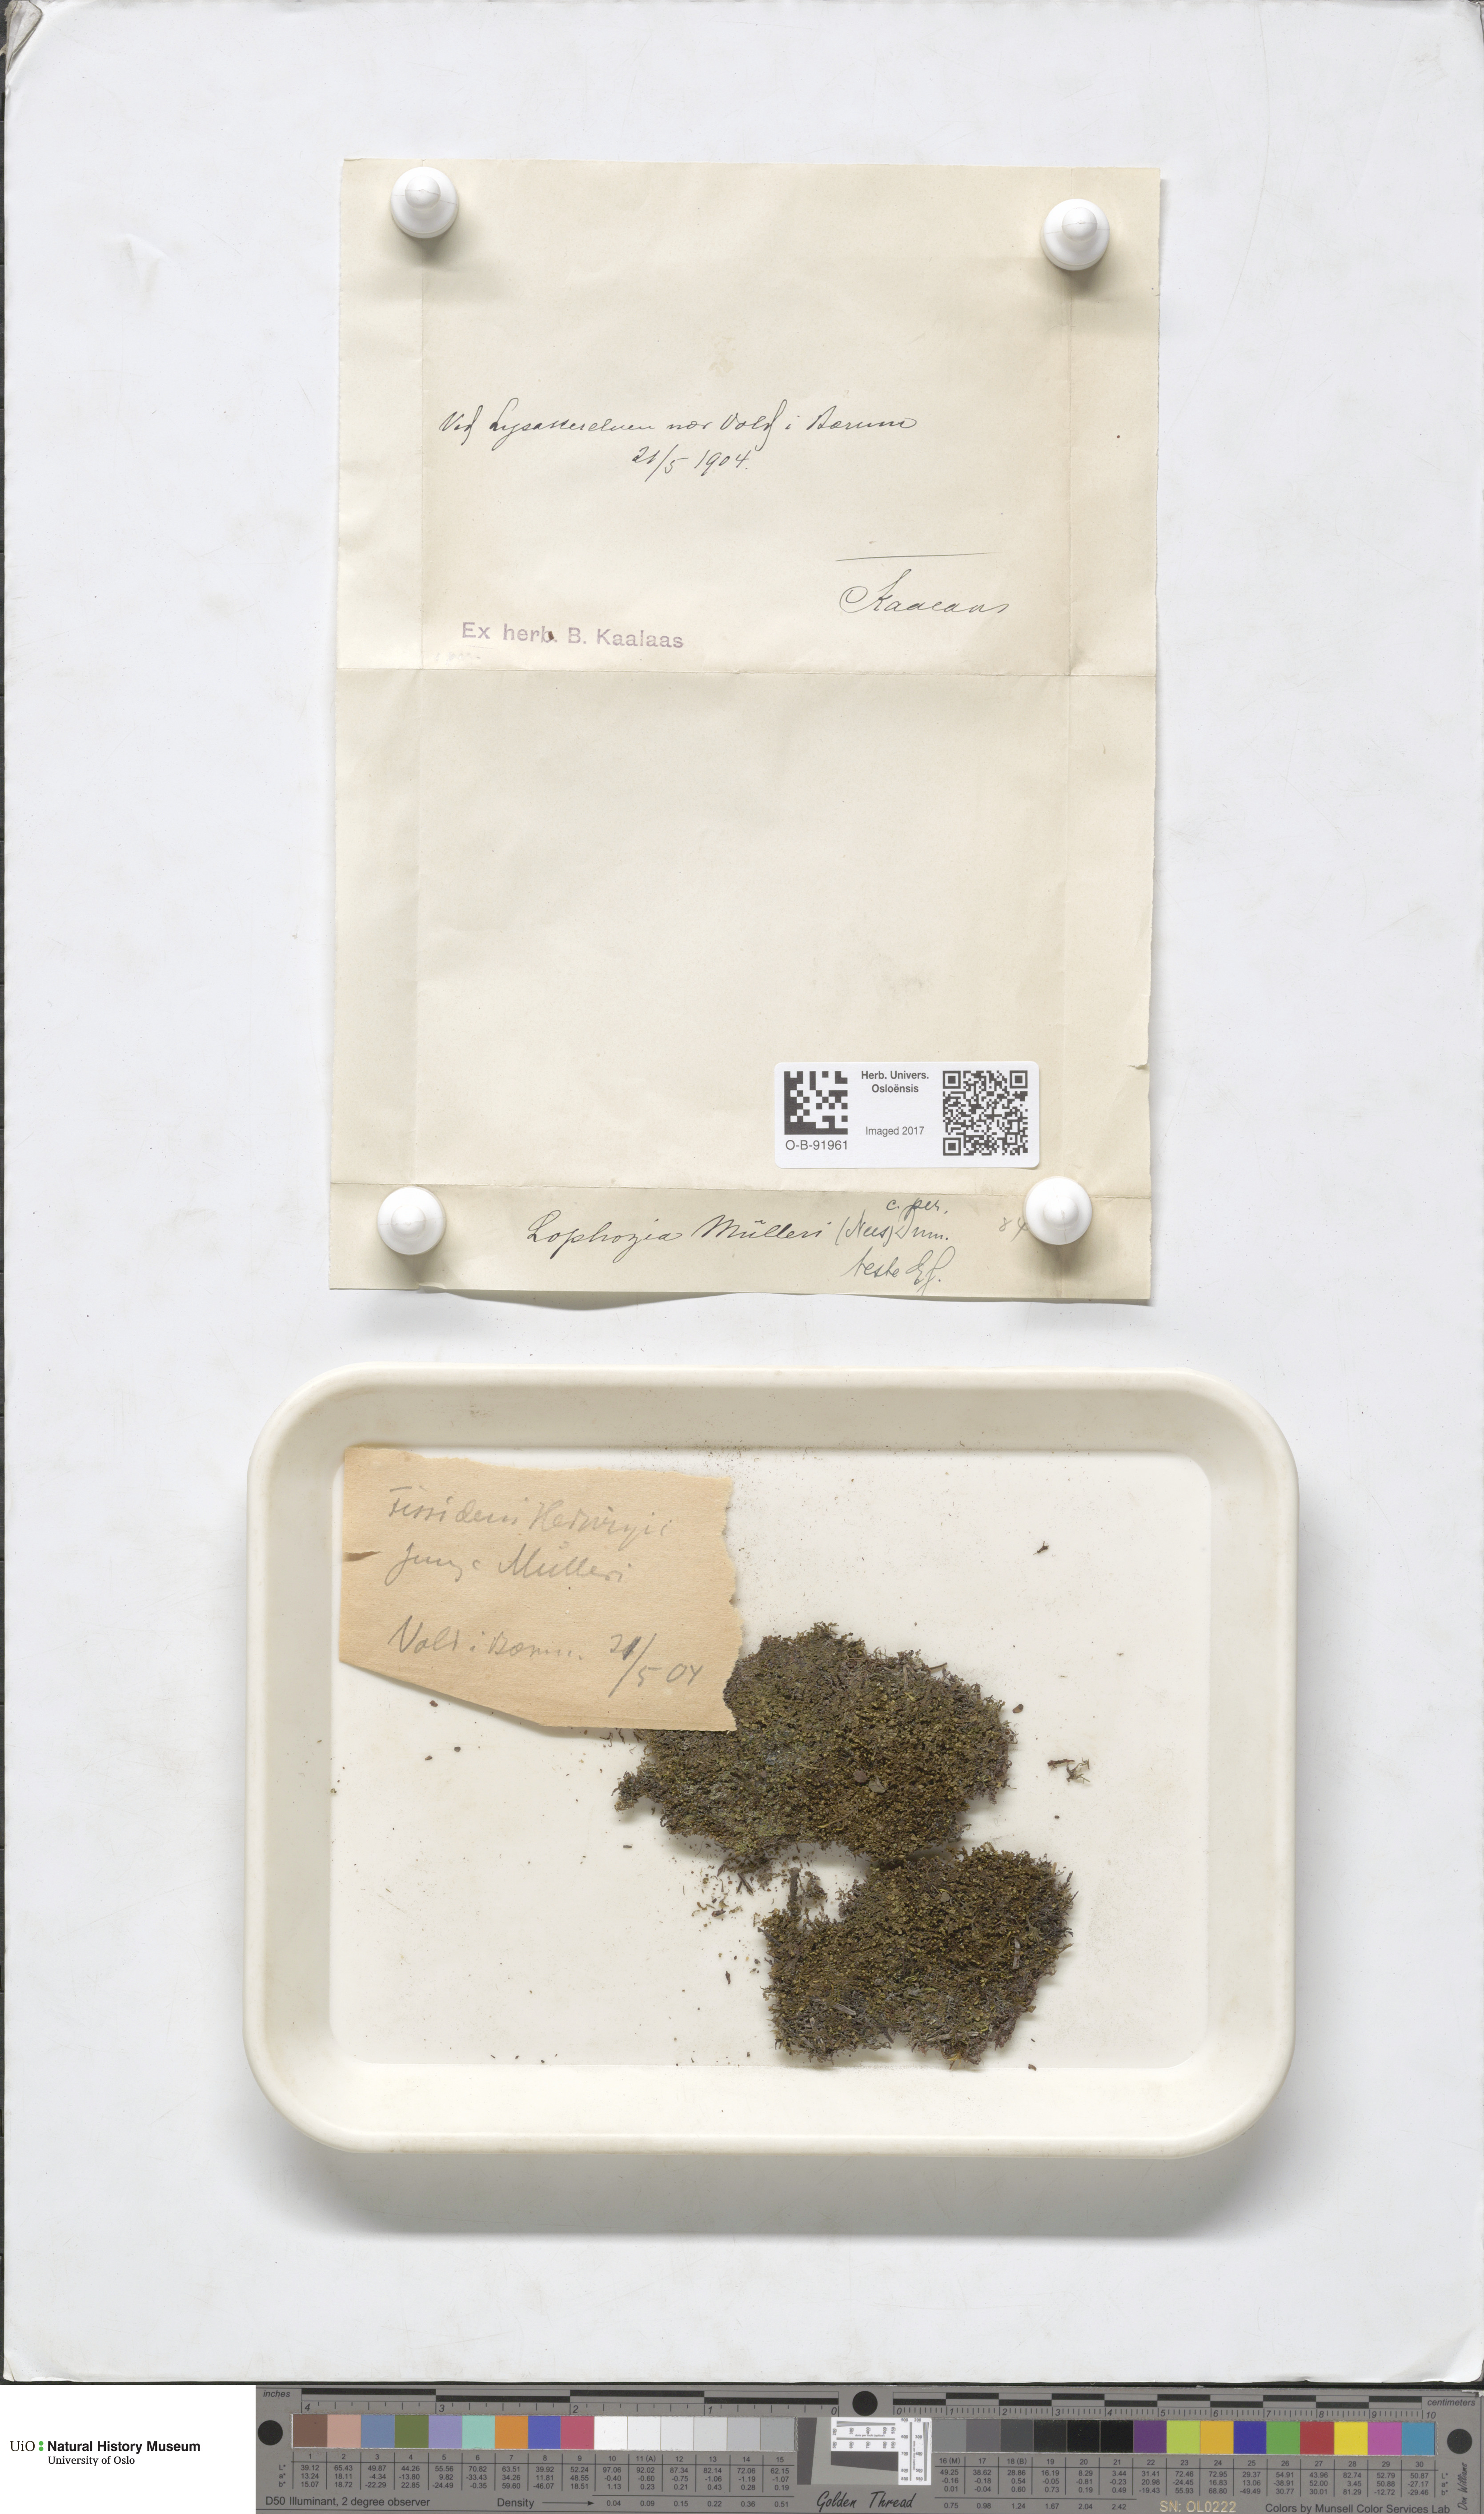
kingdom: Plantae
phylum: Marchantiophyta
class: Jungermanniopsida
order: Jungermanniales
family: Jungermanniaceae
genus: Mesoptychia
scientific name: Mesoptychia collaris
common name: Collared notchwort
